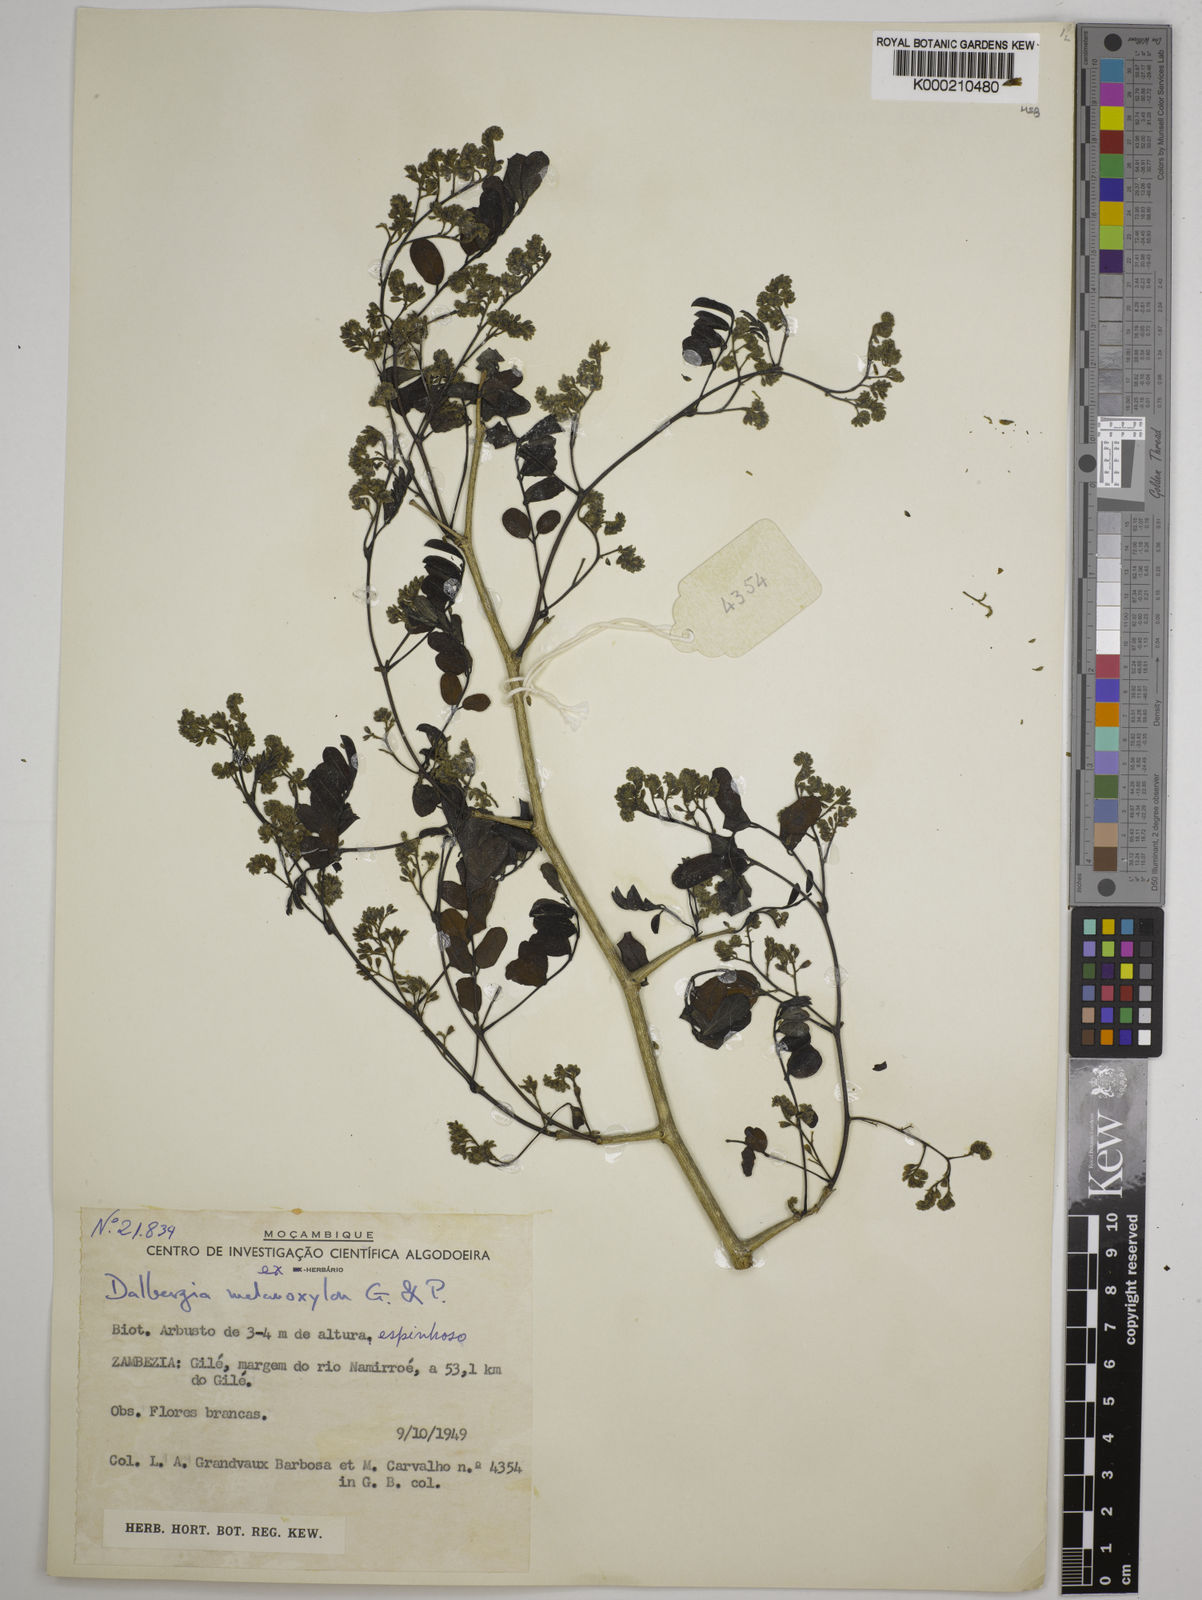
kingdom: Plantae
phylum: Tracheophyta
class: Magnoliopsida
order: Fabales
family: Fabaceae
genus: Dalbergia
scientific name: Dalbergia melanoxylon
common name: African blackwood
